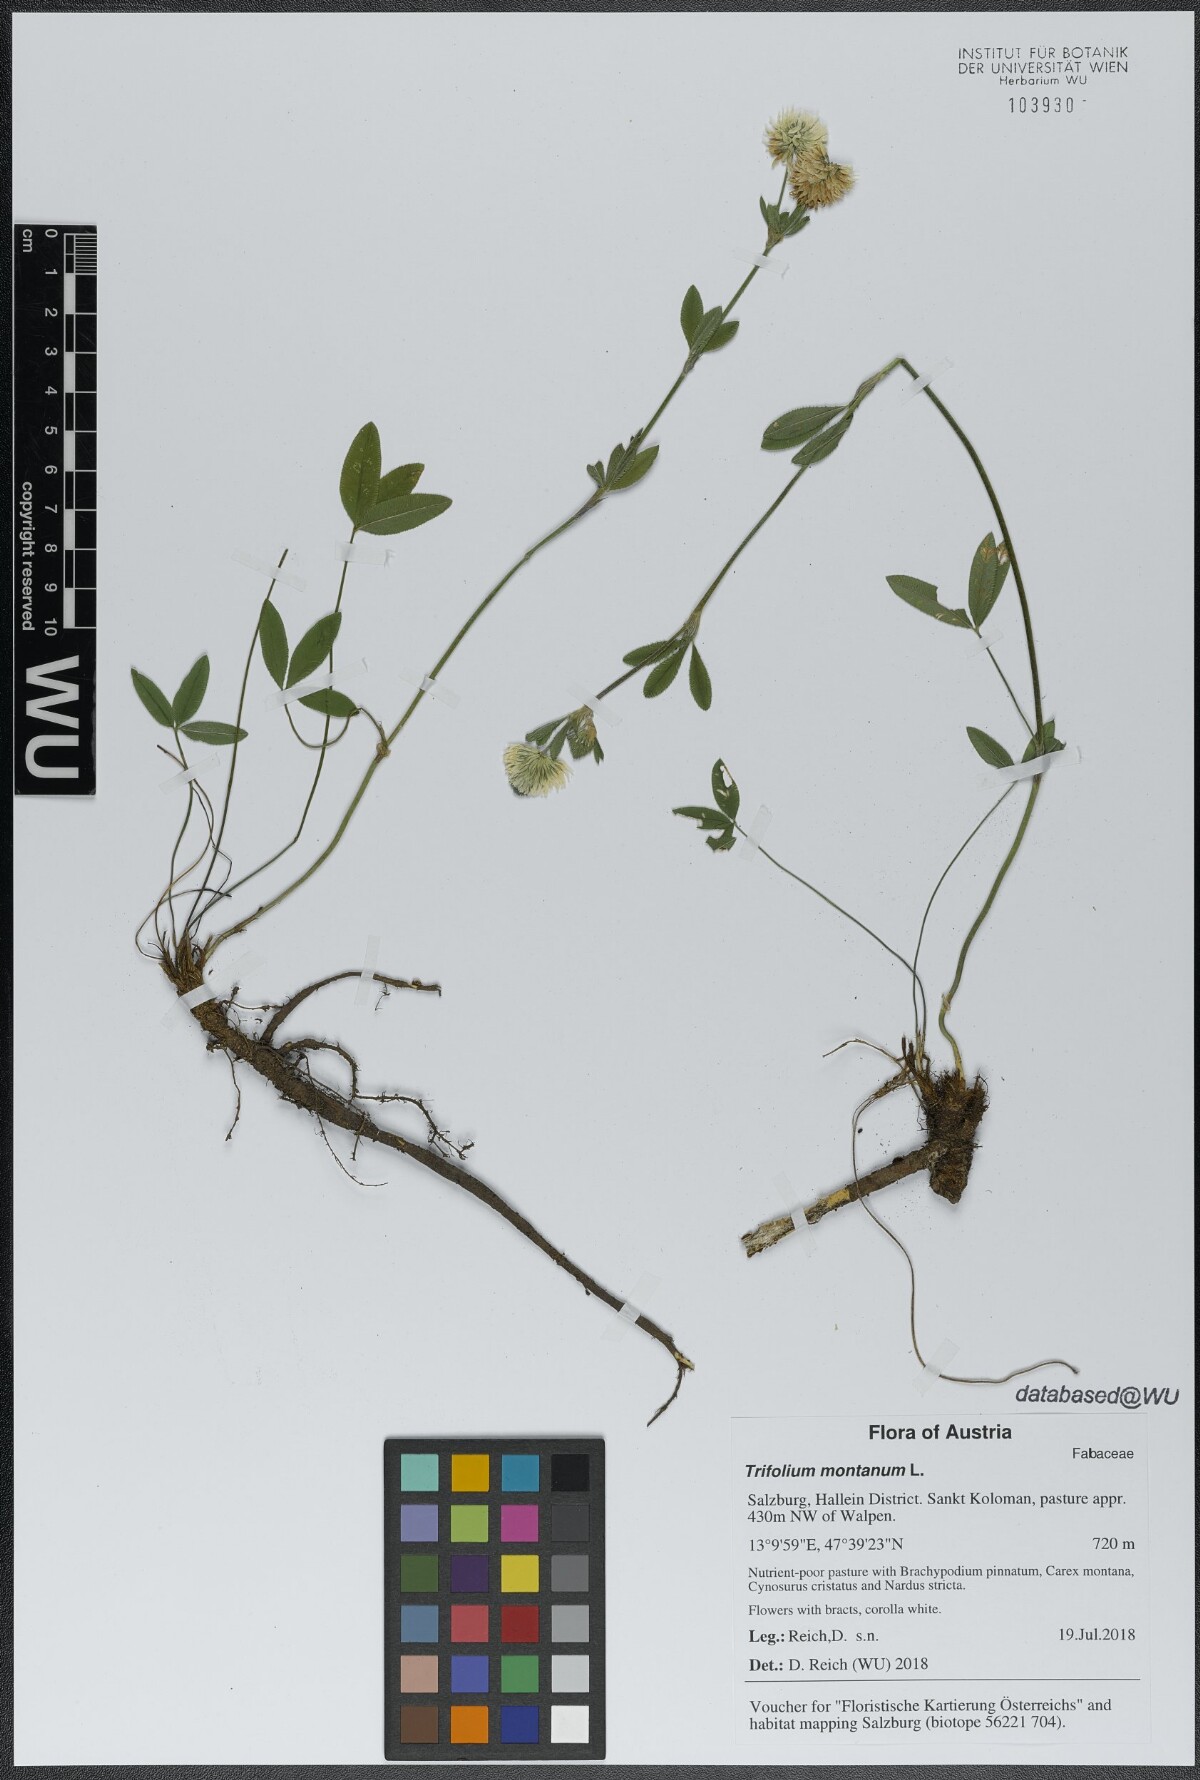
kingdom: Plantae
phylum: Tracheophyta
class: Magnoliopsida
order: Fabales
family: Fabaceae
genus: Trifolium
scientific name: Trifolium montanum
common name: Mountain clover
